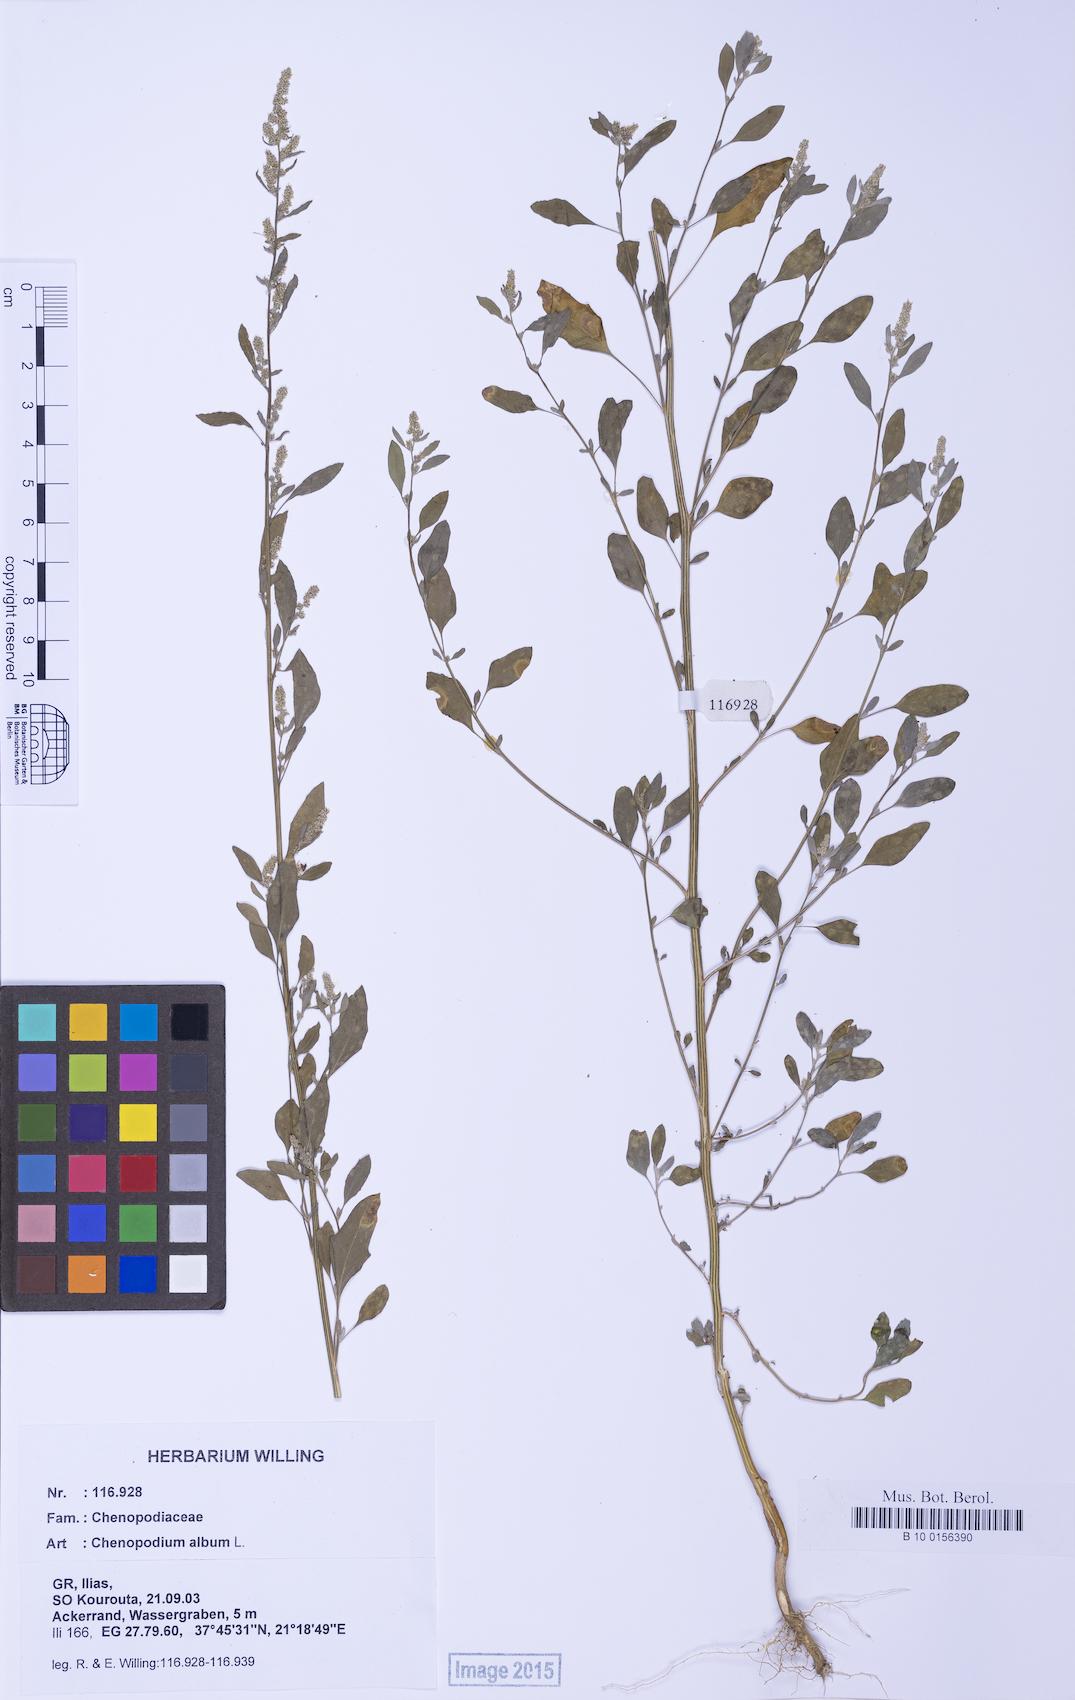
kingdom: Plantae
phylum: Tracheophyta
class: Magnoliopsida
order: Caryophyllales
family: Amaranthaceae
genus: Chenopodium
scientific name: Chenopodium striatiforme
